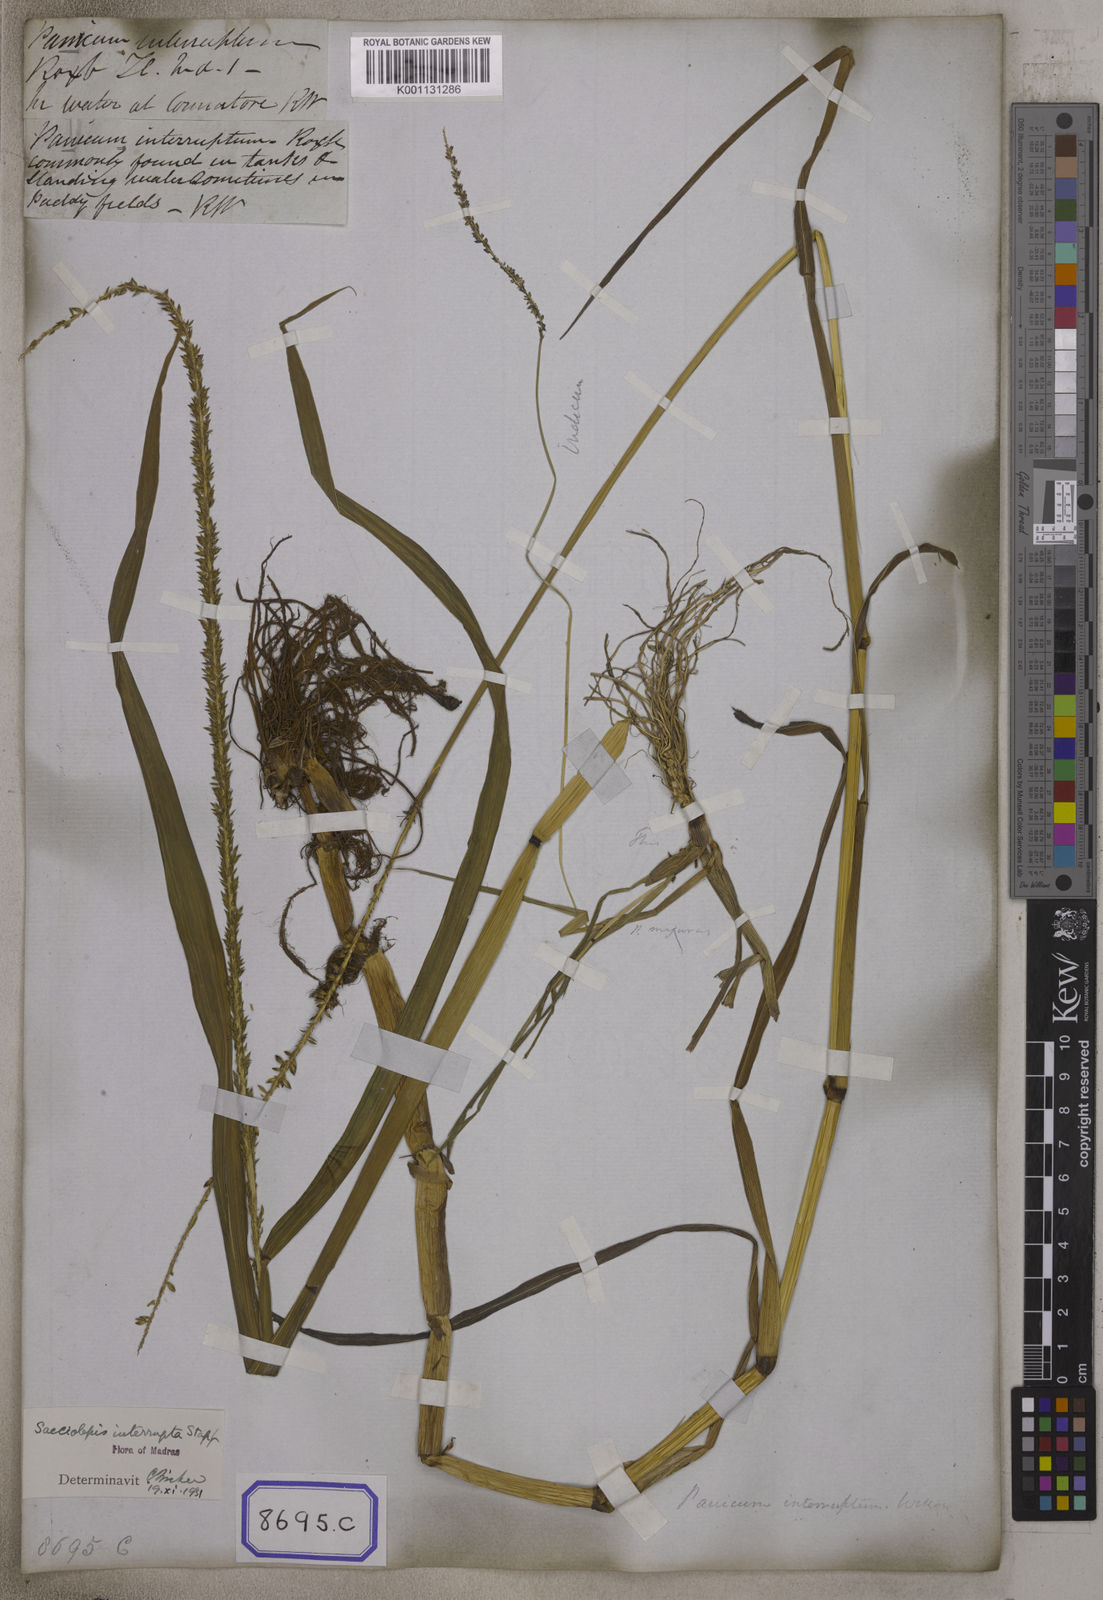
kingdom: Plantae
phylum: Tracheophyta
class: Liliopsida
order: Poales
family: Poaceae
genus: Sacciolepis
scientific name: Sacciolepis interrupta
